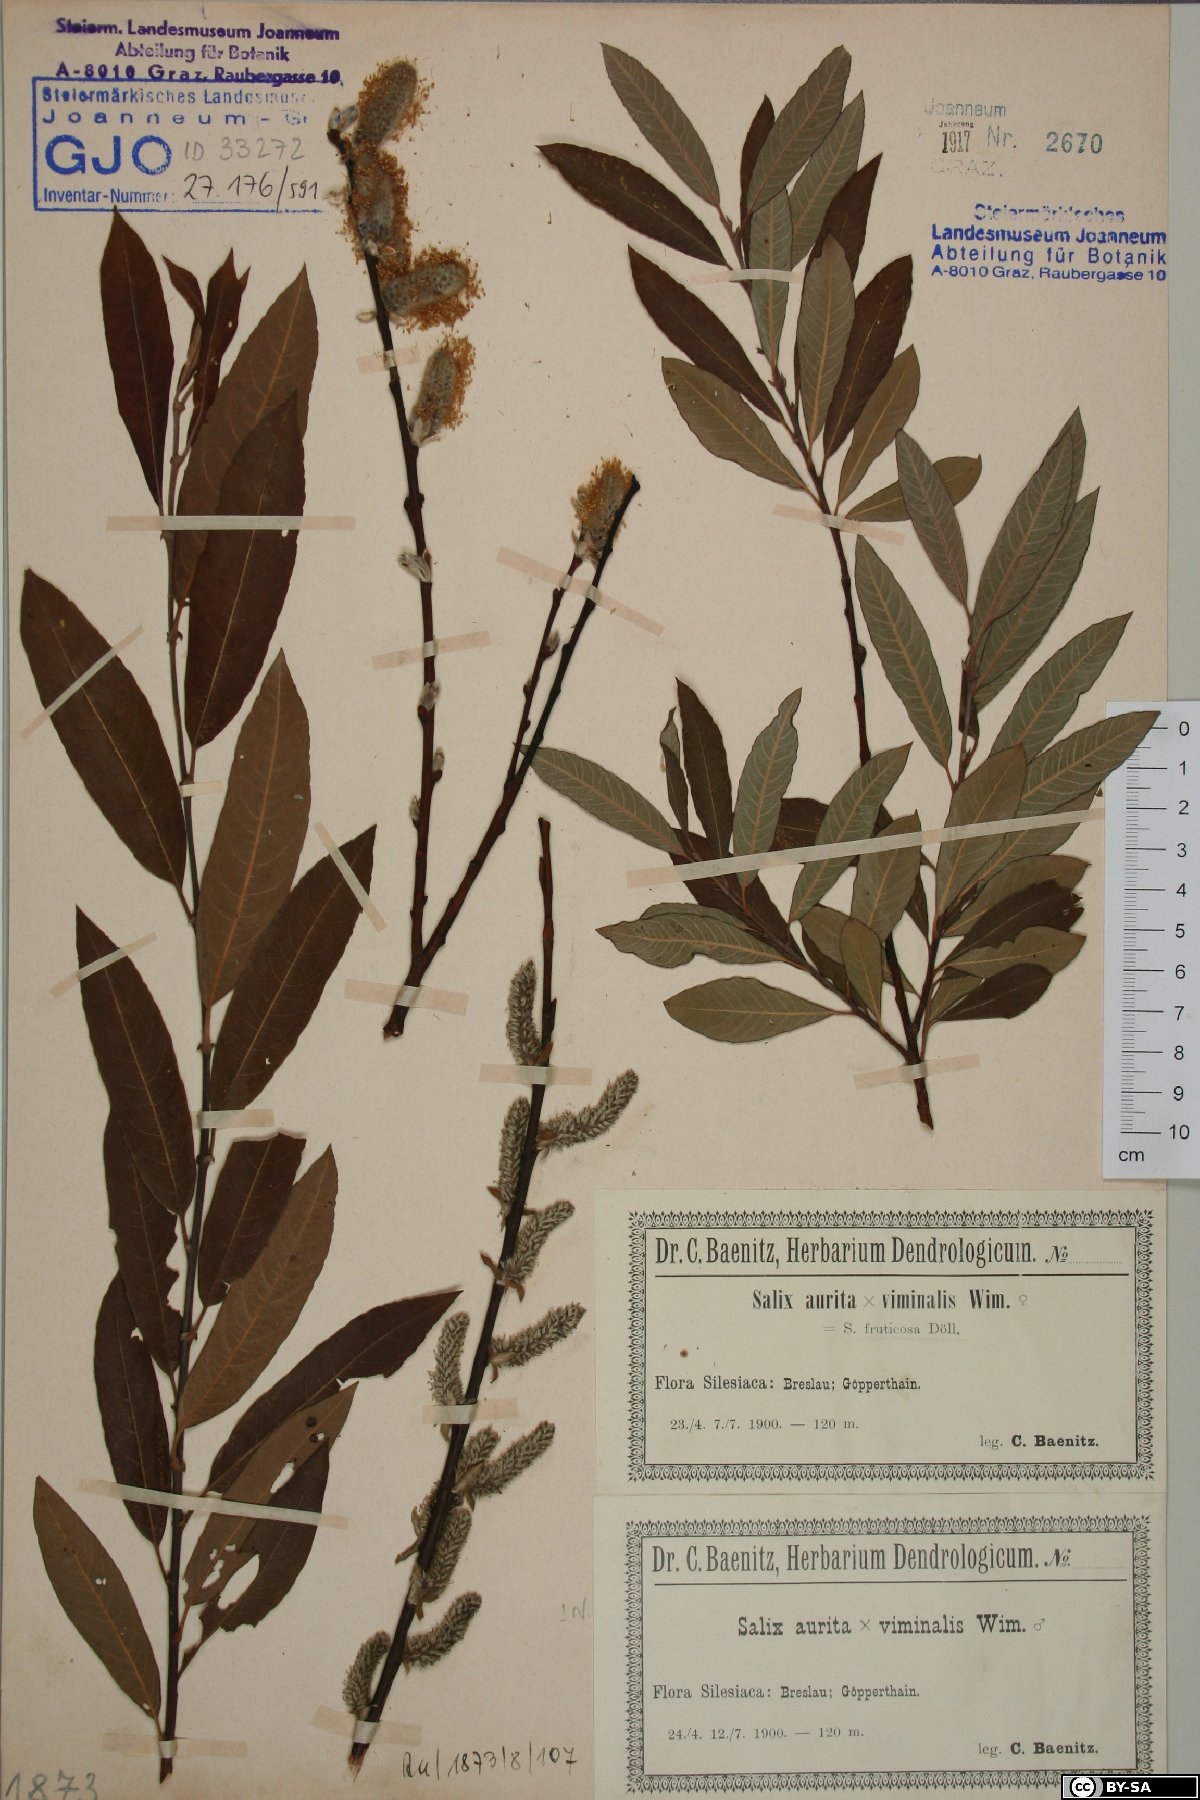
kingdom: Plantae
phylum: Tracheophyta
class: Magnoliopsida
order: Malpighiales
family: Salicaceae
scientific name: Salicaceae
